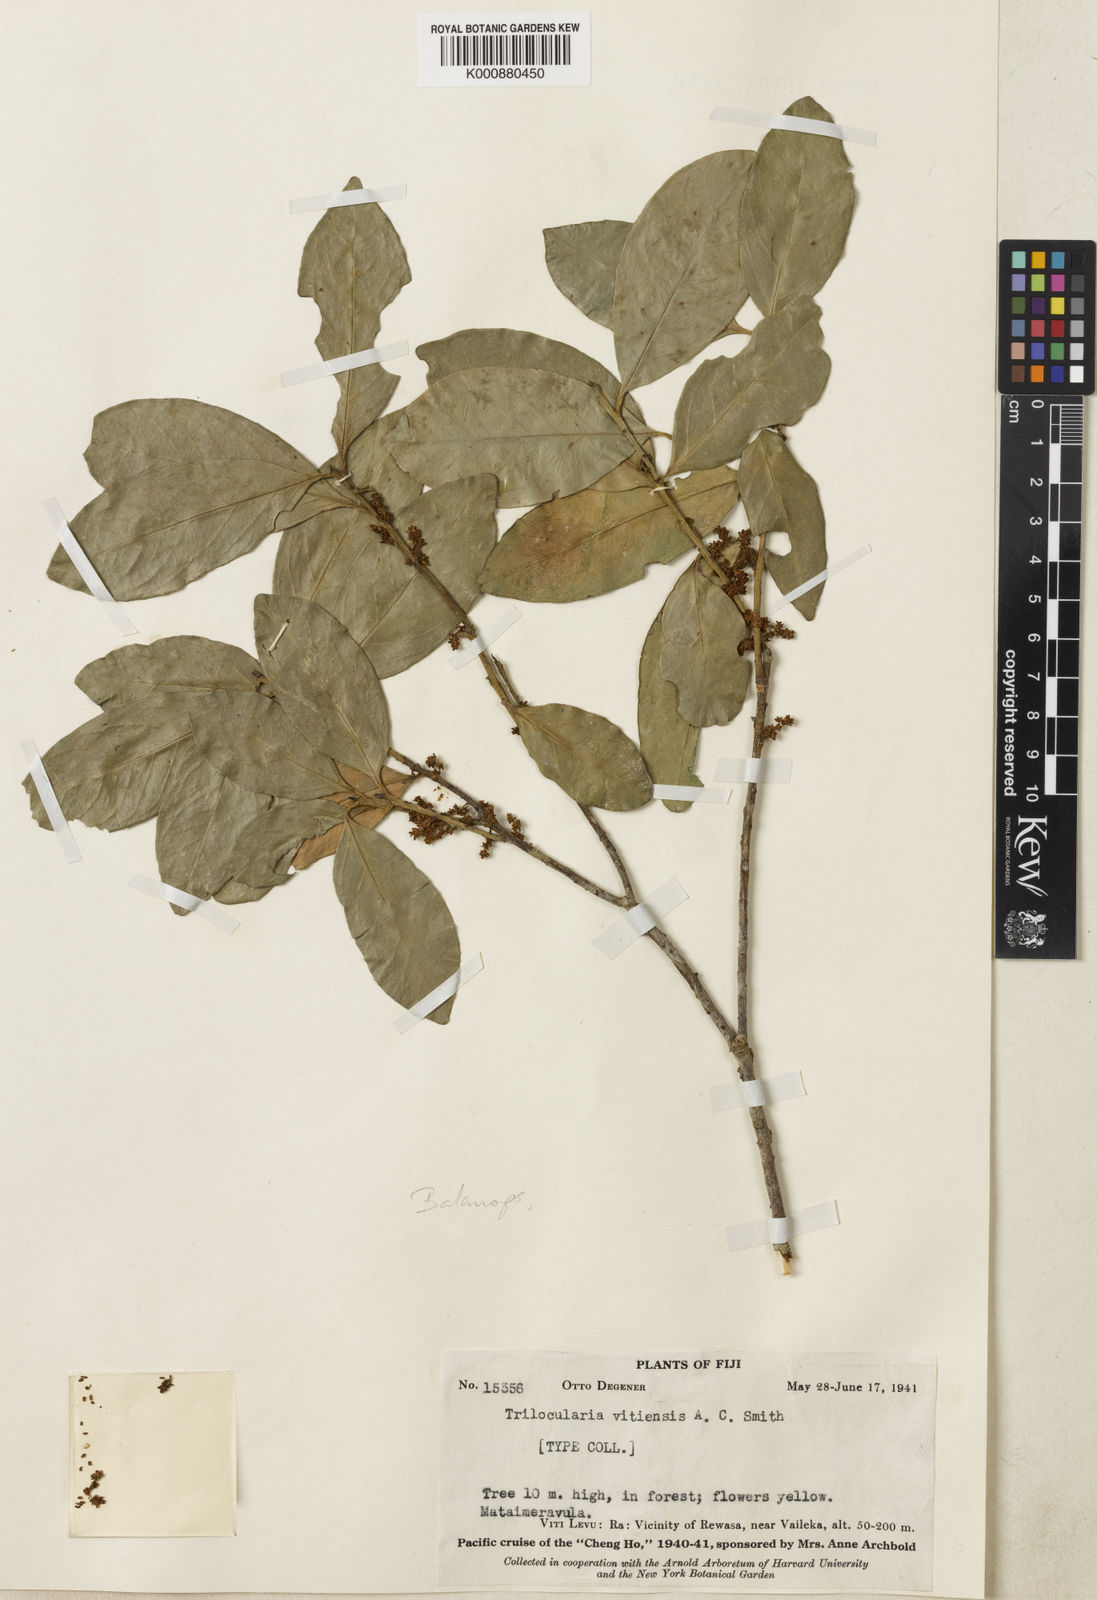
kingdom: Plantae
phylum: Tracheophyta
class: Magnoliopsida
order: Malpighiales
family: Balanopaceae
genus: Balanops
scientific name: Balanops pedicellata
